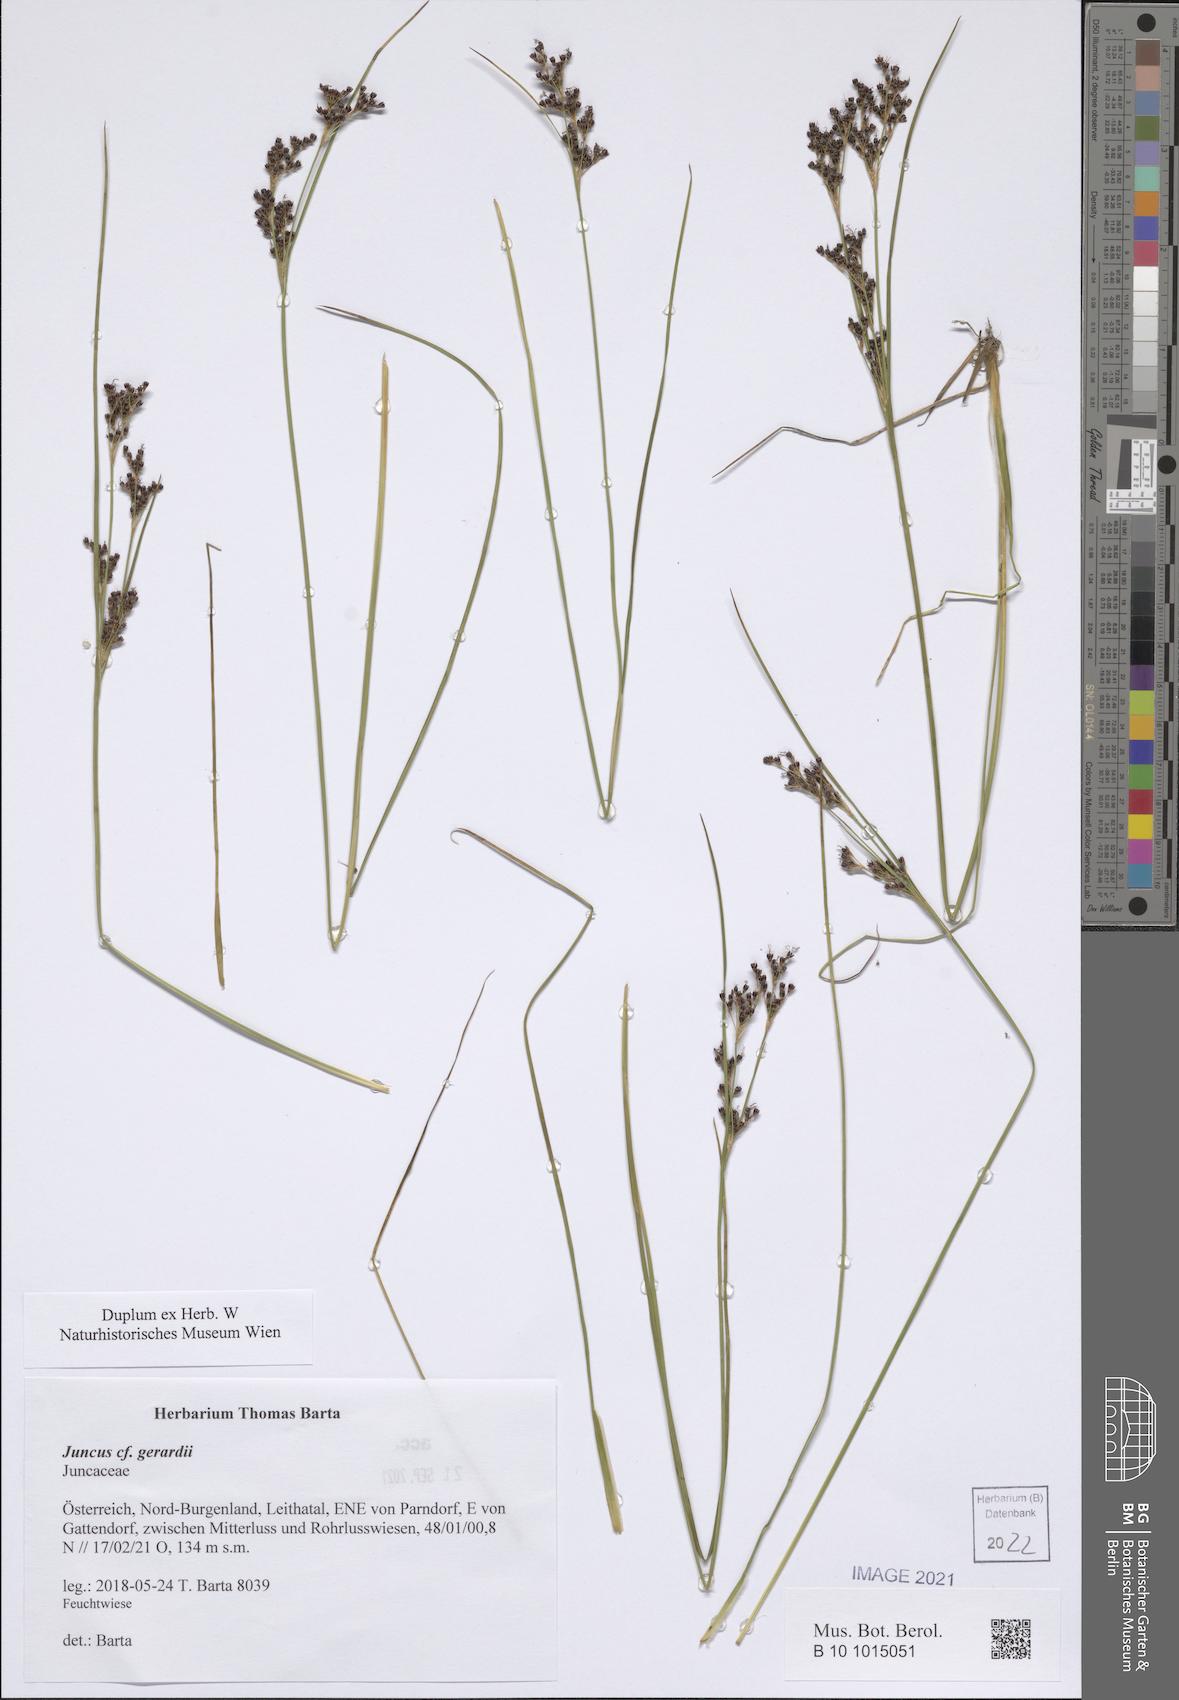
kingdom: Plantae
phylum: Tracheophyta
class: Liliopsida
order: Poales
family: Juncaceae
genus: Juncus
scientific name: Juncus gerardi
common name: Saltmarsh rush
